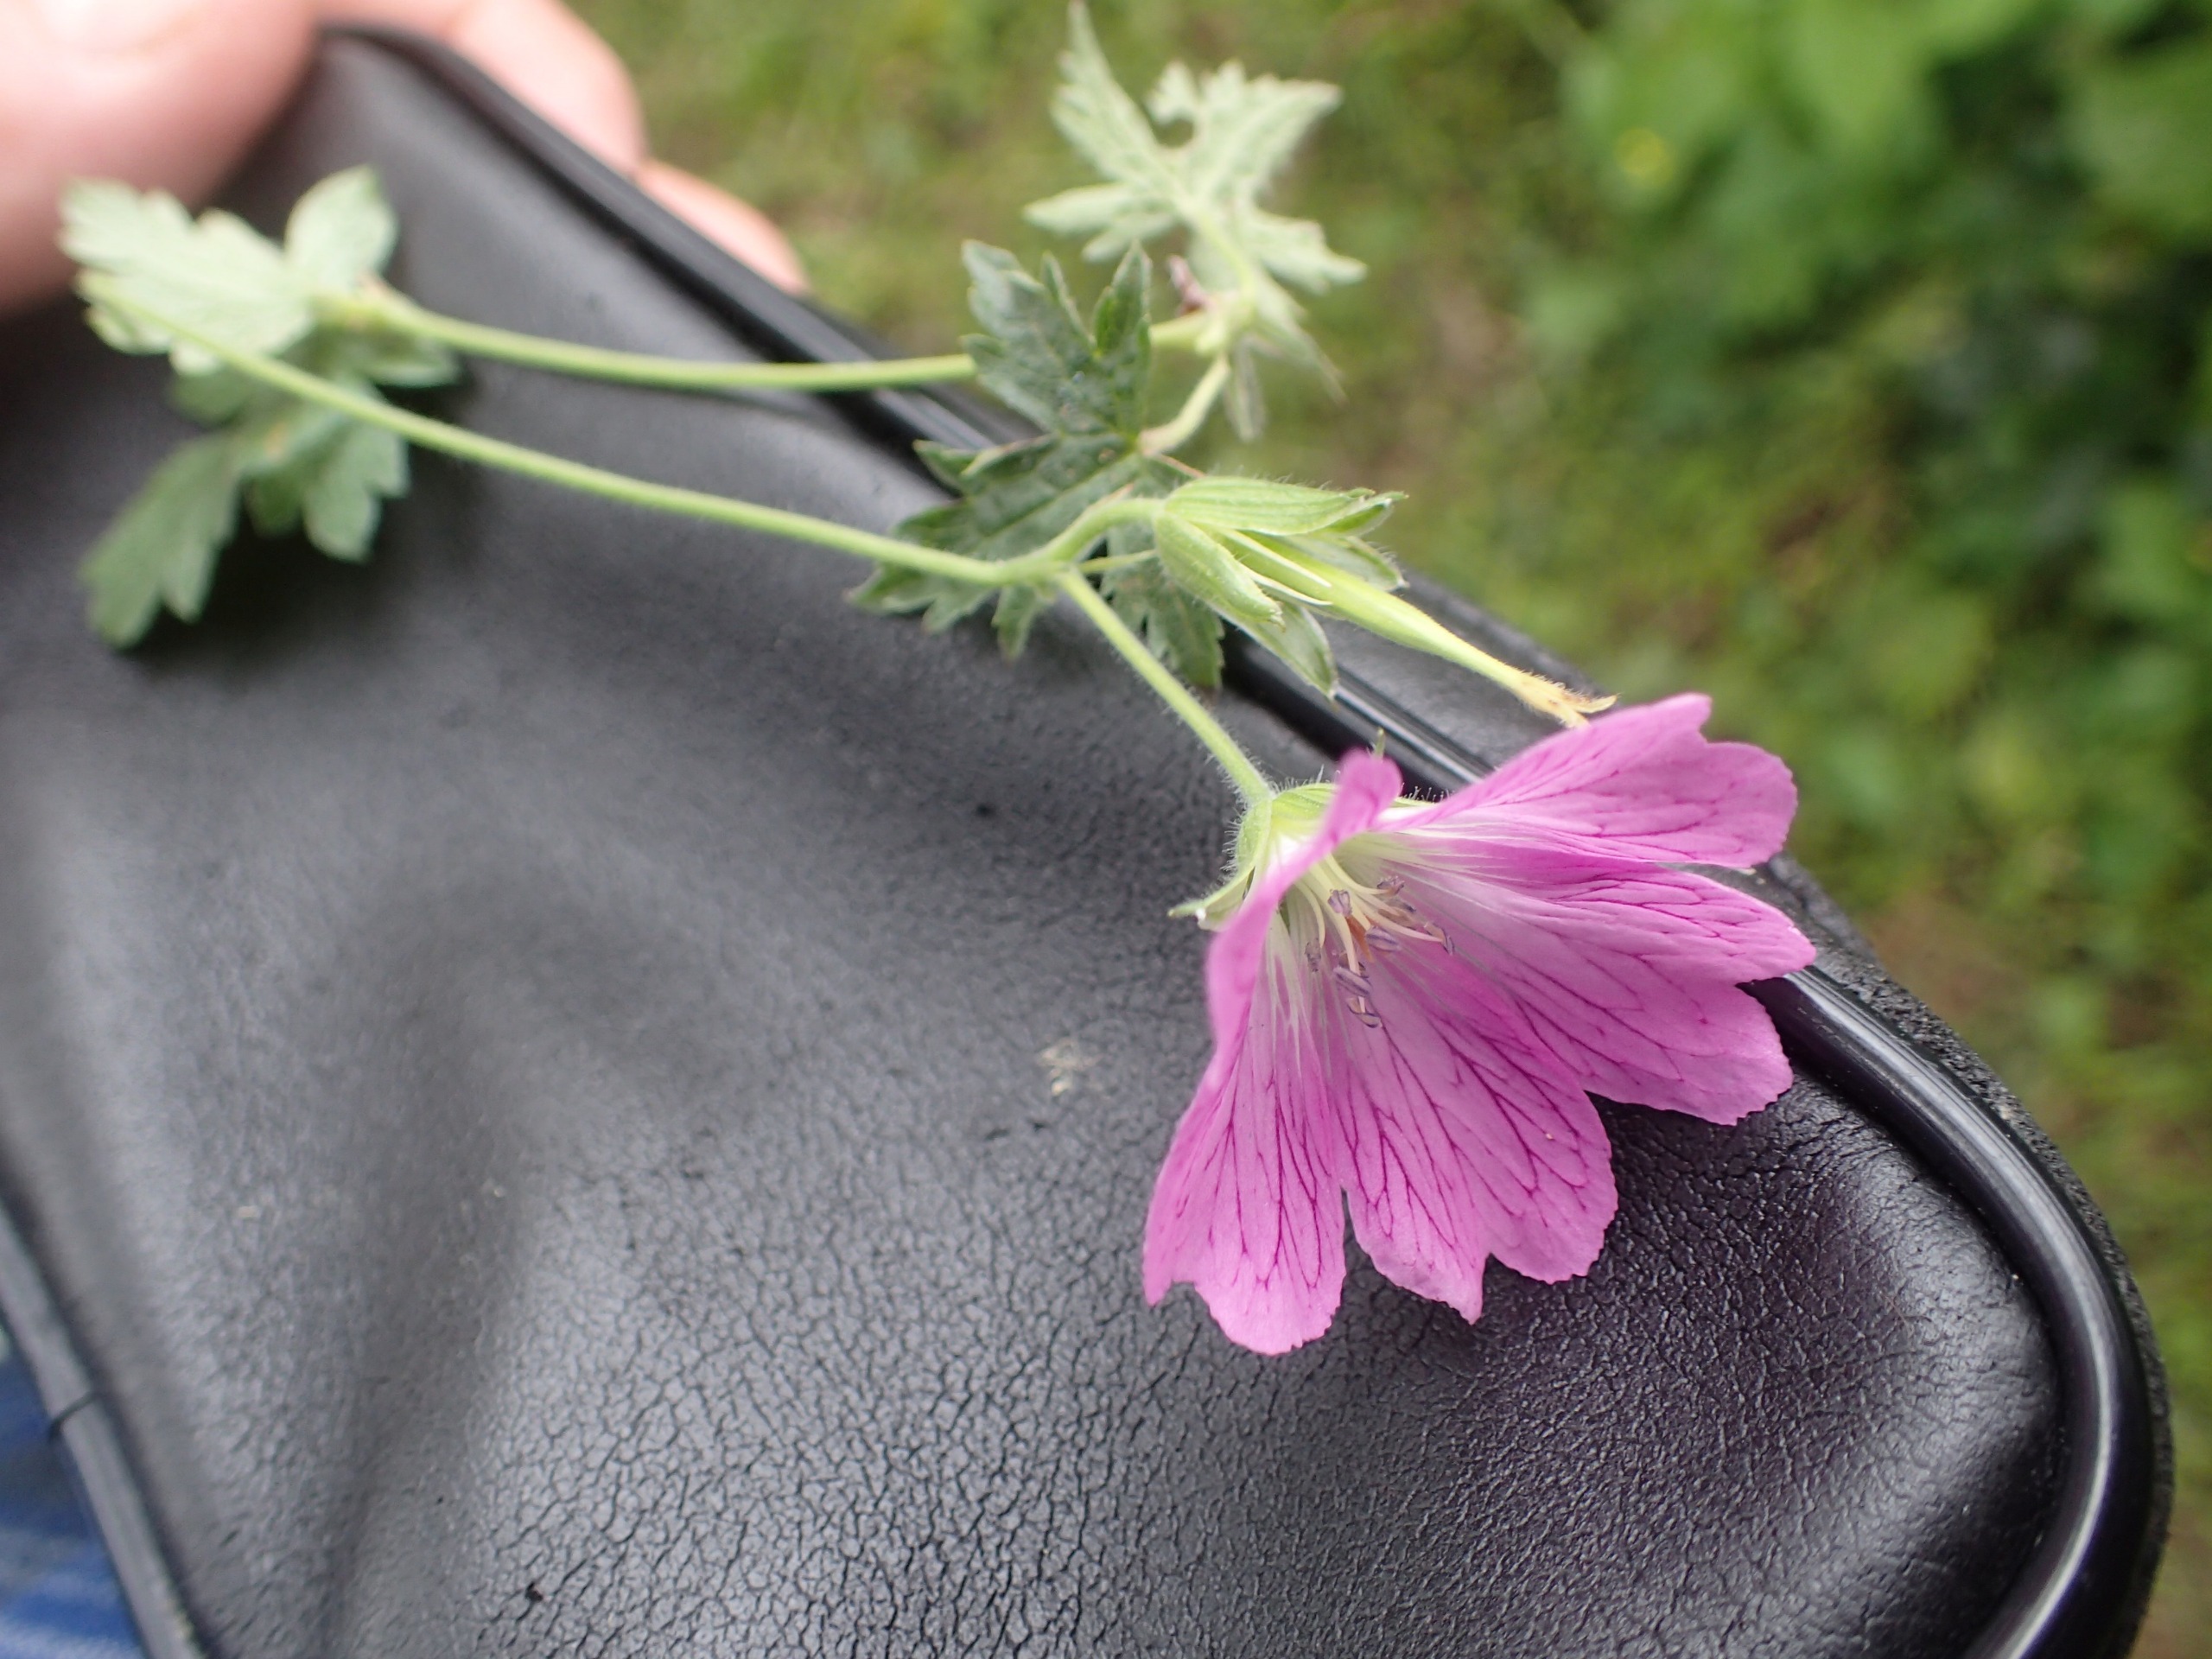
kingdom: Plantae
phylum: Tracheophyta
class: Magnoliopsida
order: Geraniales
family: Geraniaceae
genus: Geranium
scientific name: Geranium endressii
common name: Spansk storkenæb
